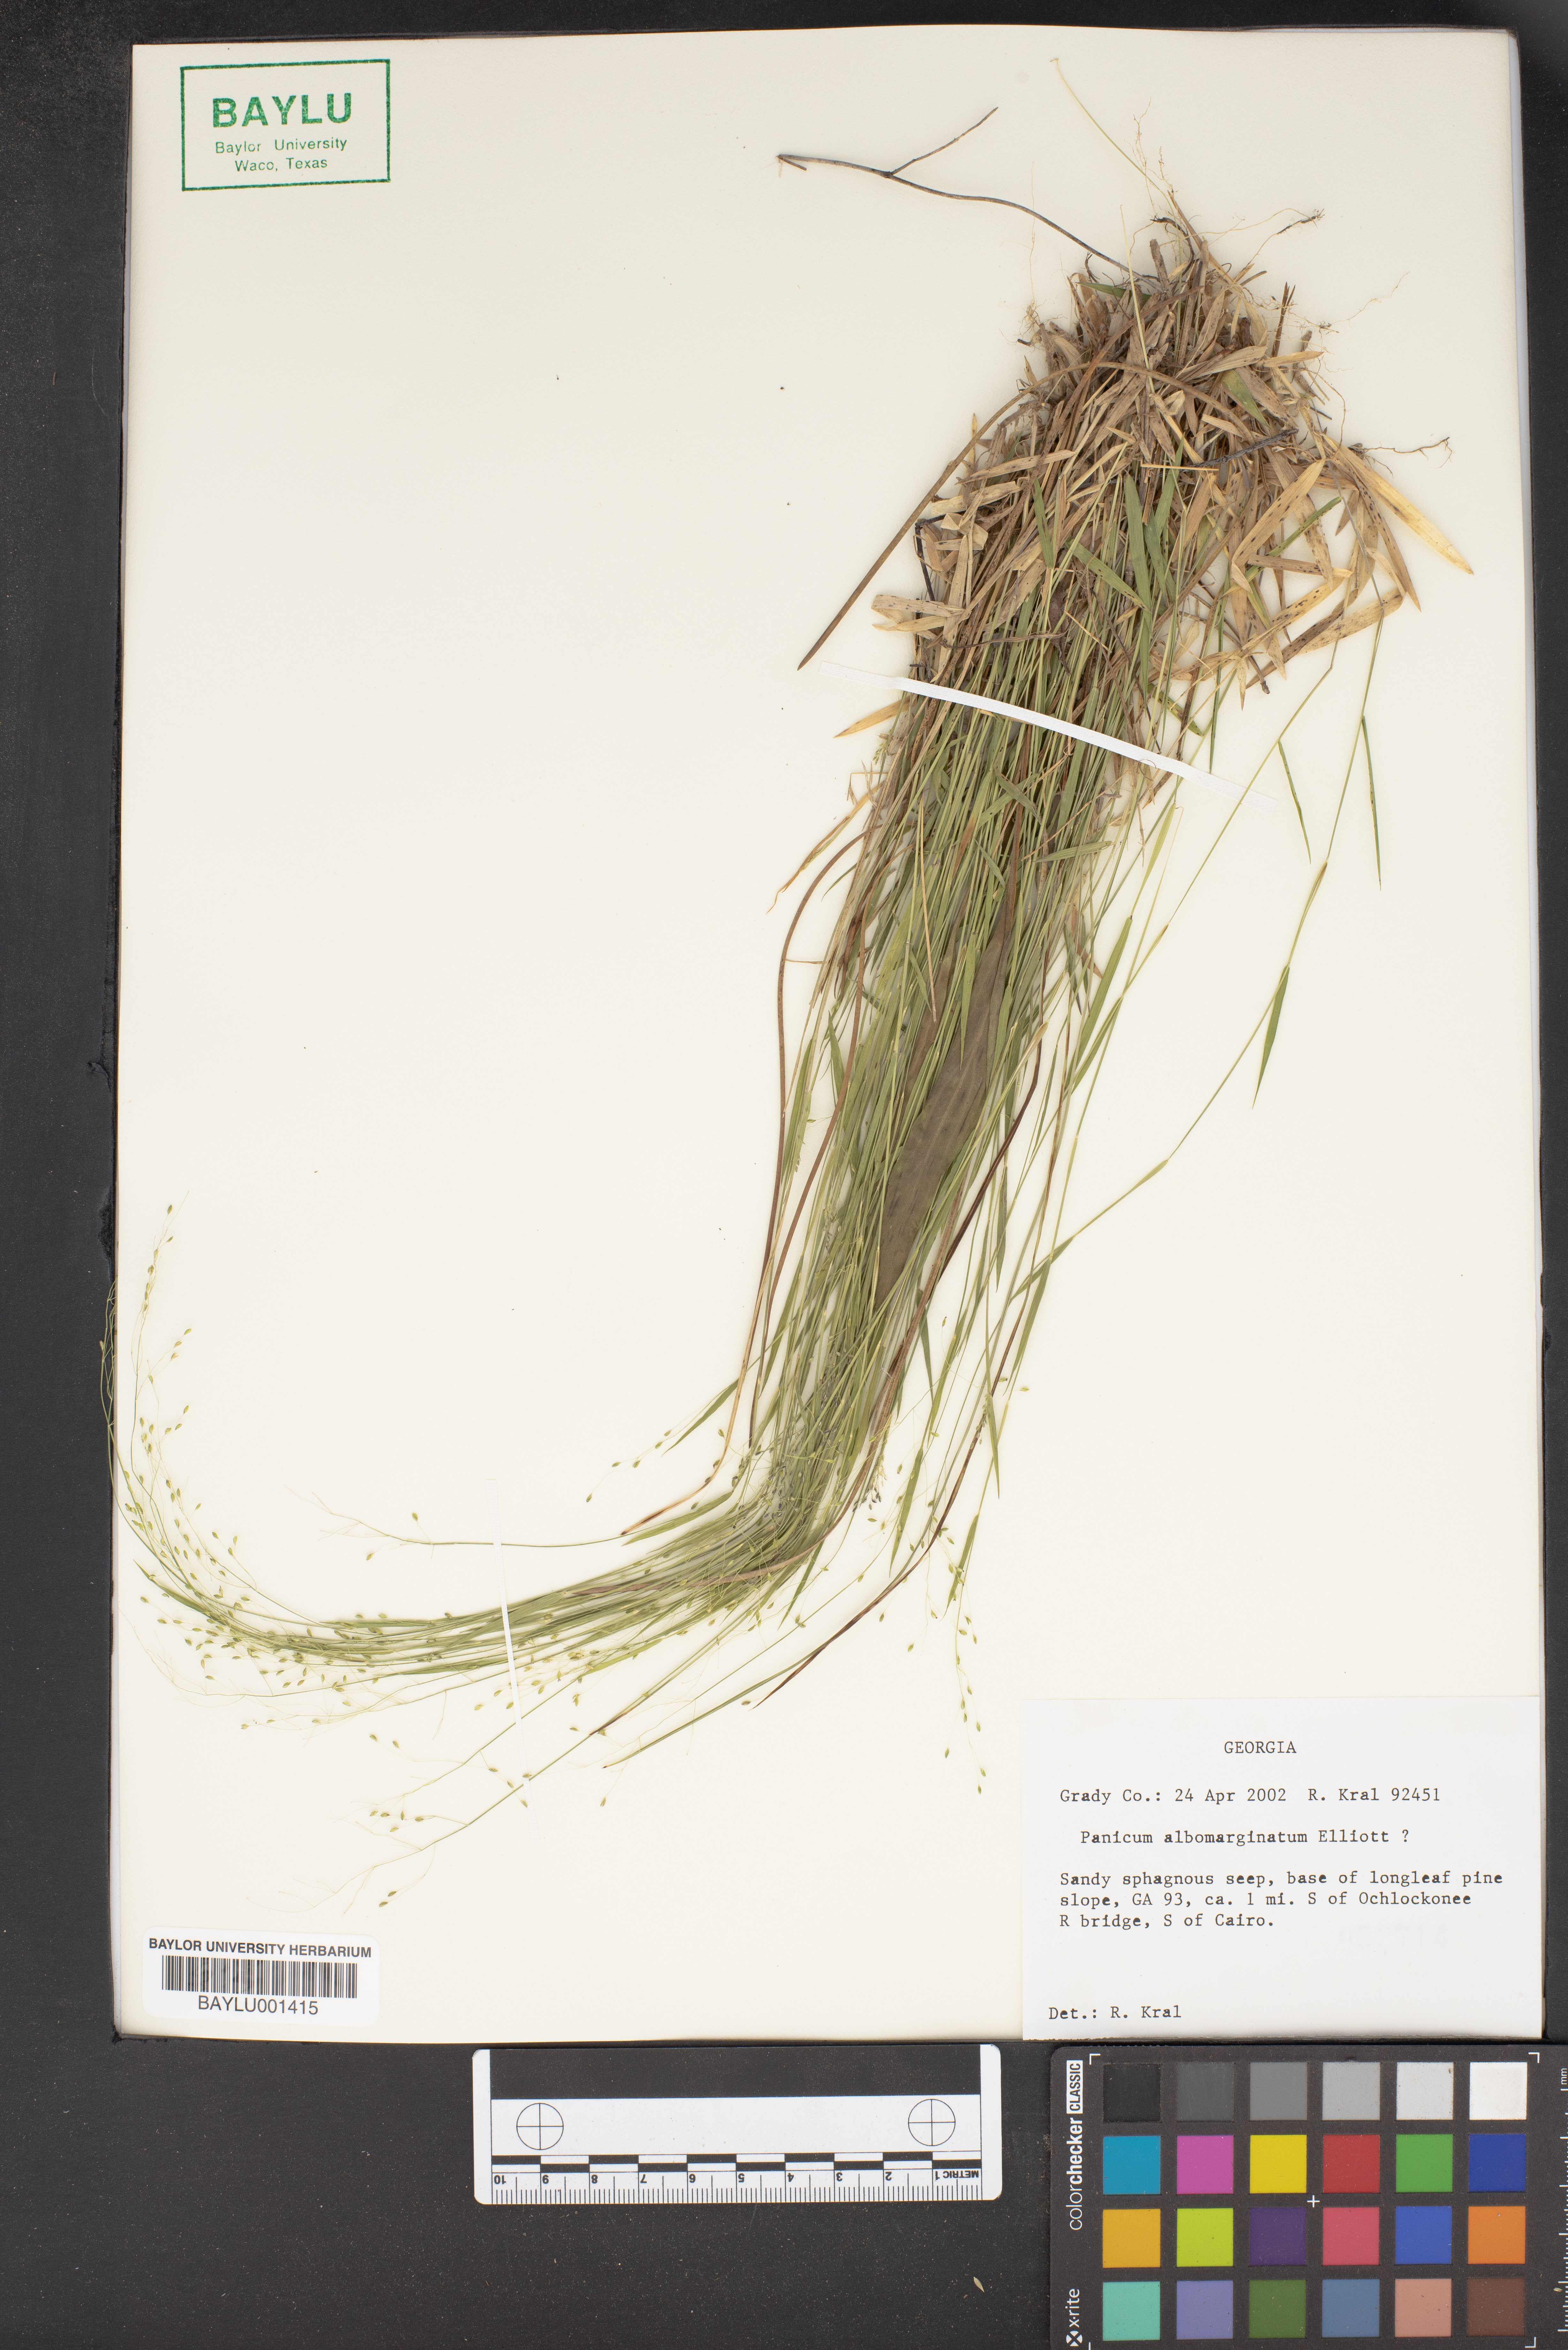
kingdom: Plantae
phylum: Tracheophyta
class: Liliopsida
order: Poales
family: Poaceae
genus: Dichanthelium
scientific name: Dichanthelium albomarginatum
